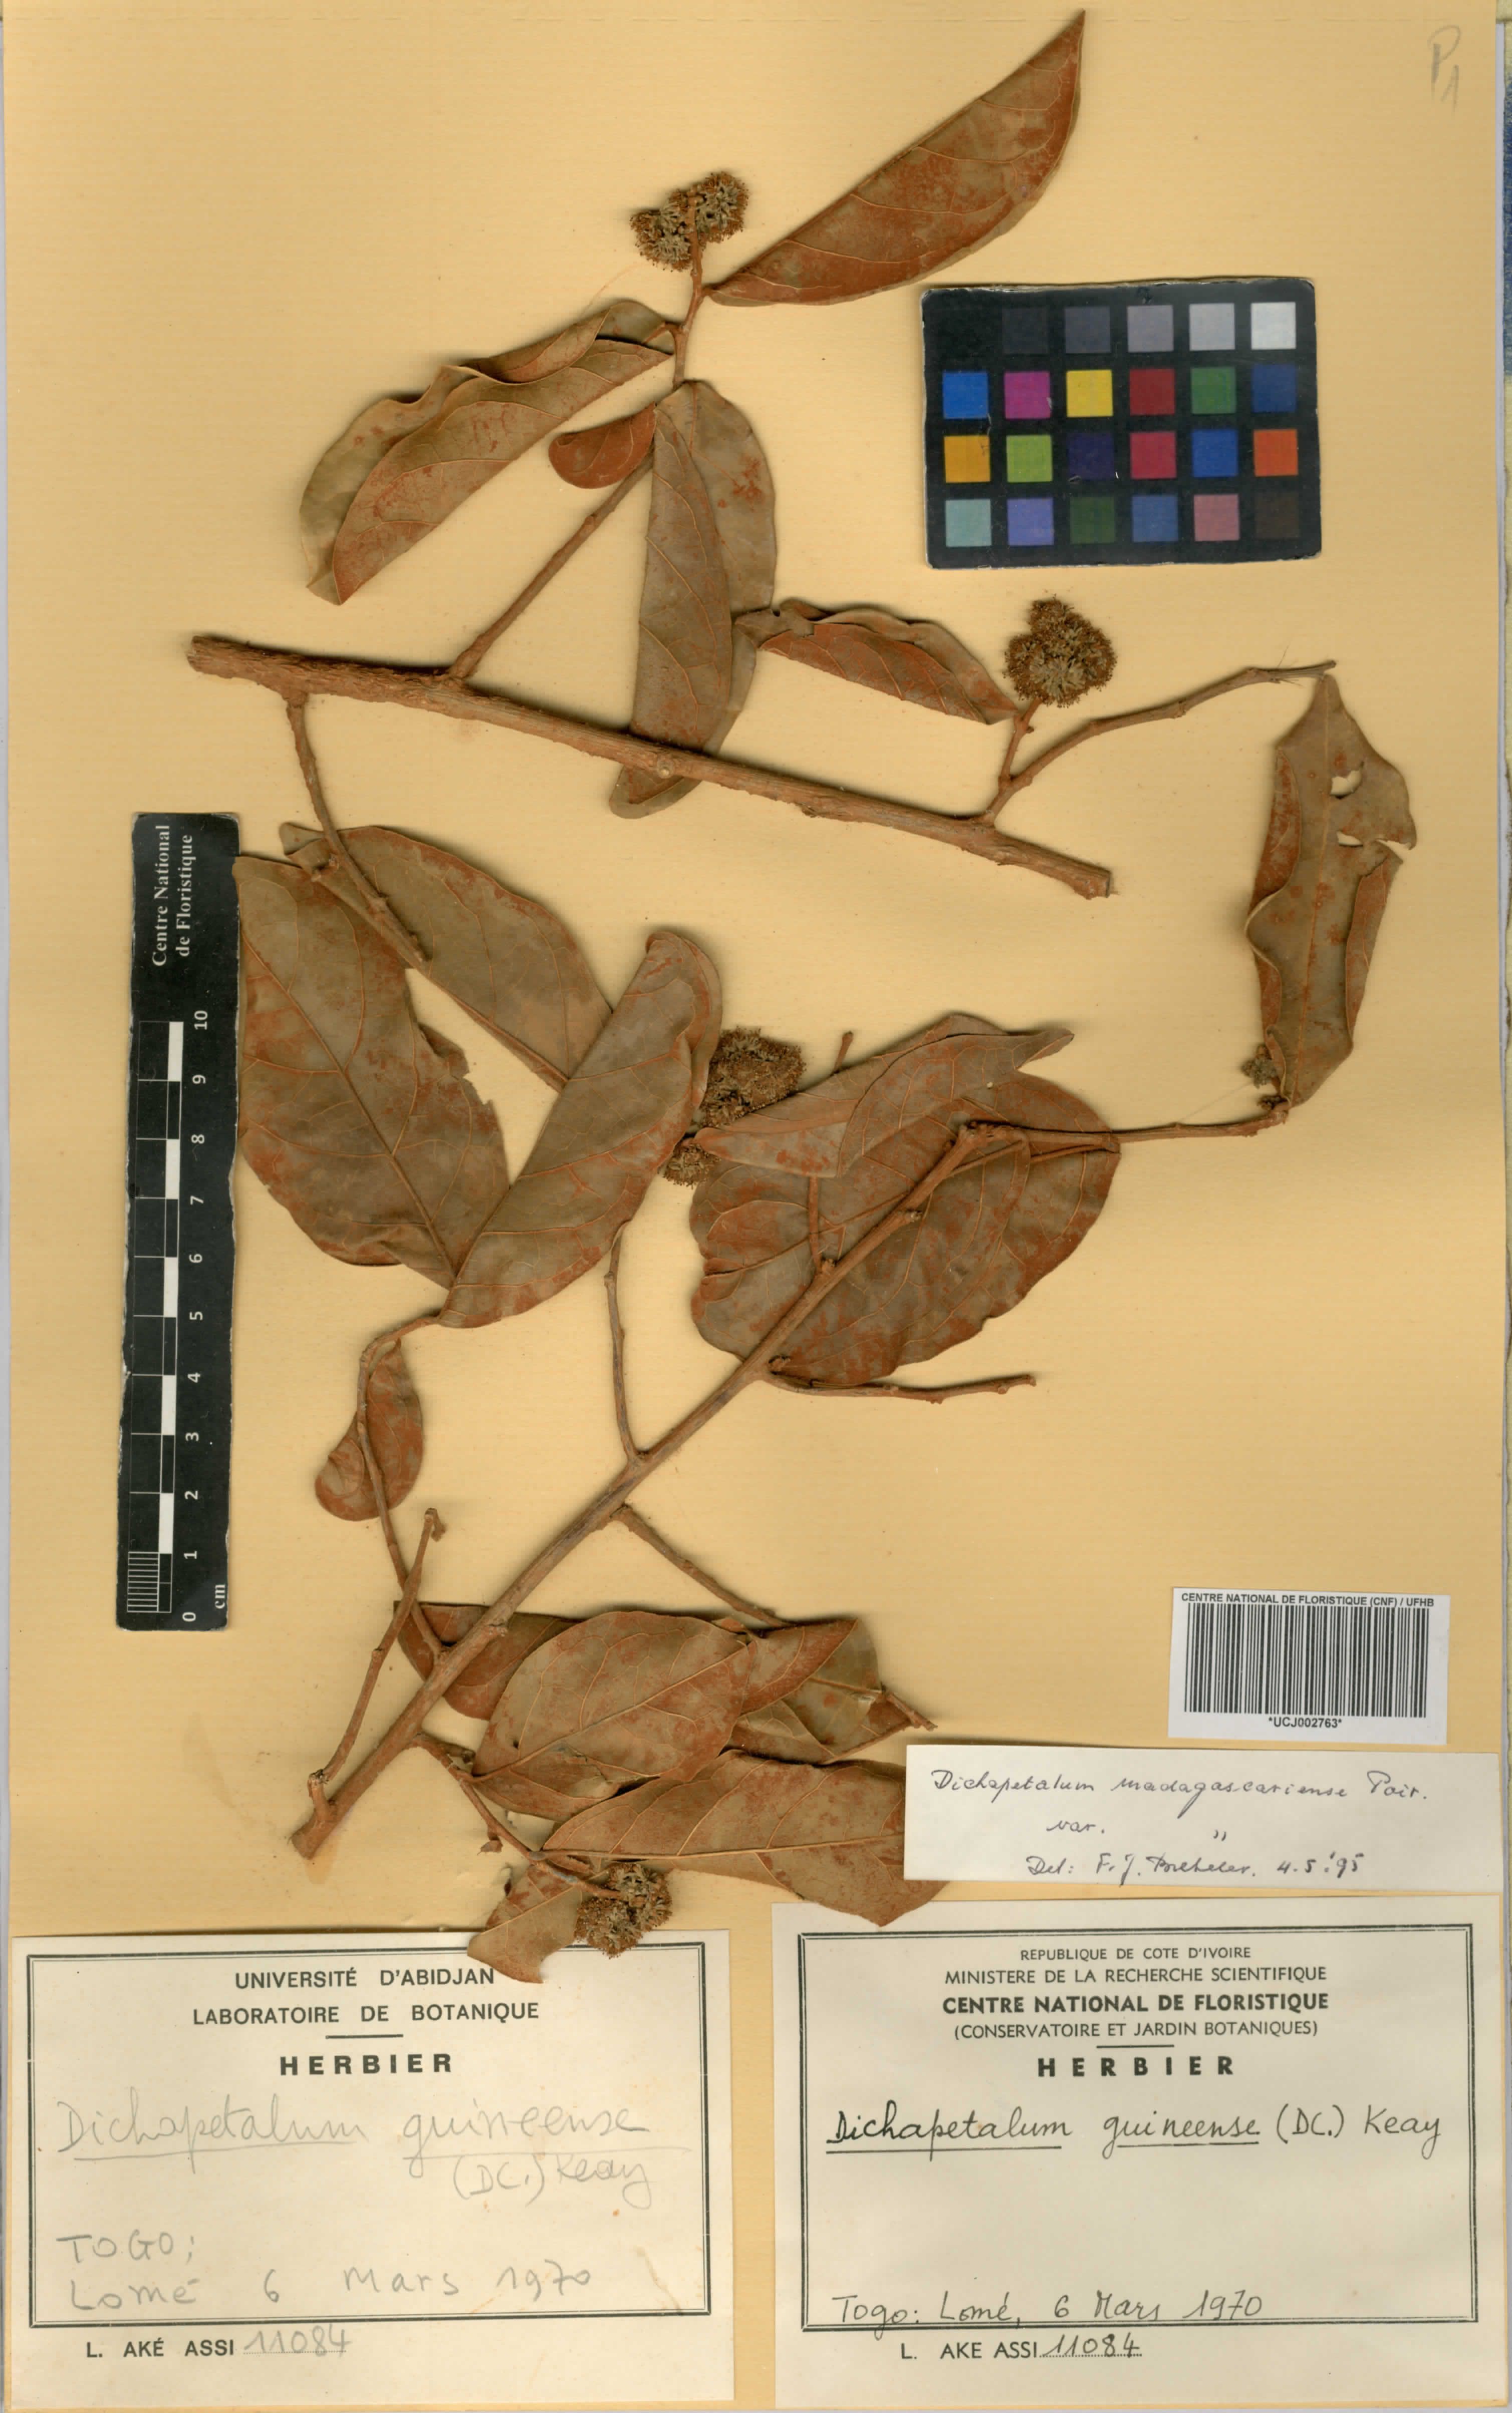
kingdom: Plantae
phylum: Tracheophyta
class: Magnoliopsida
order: Malpighiales
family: Dichapetalaceae
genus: Dichapetalum
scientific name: Dichapetalum madagascariense
